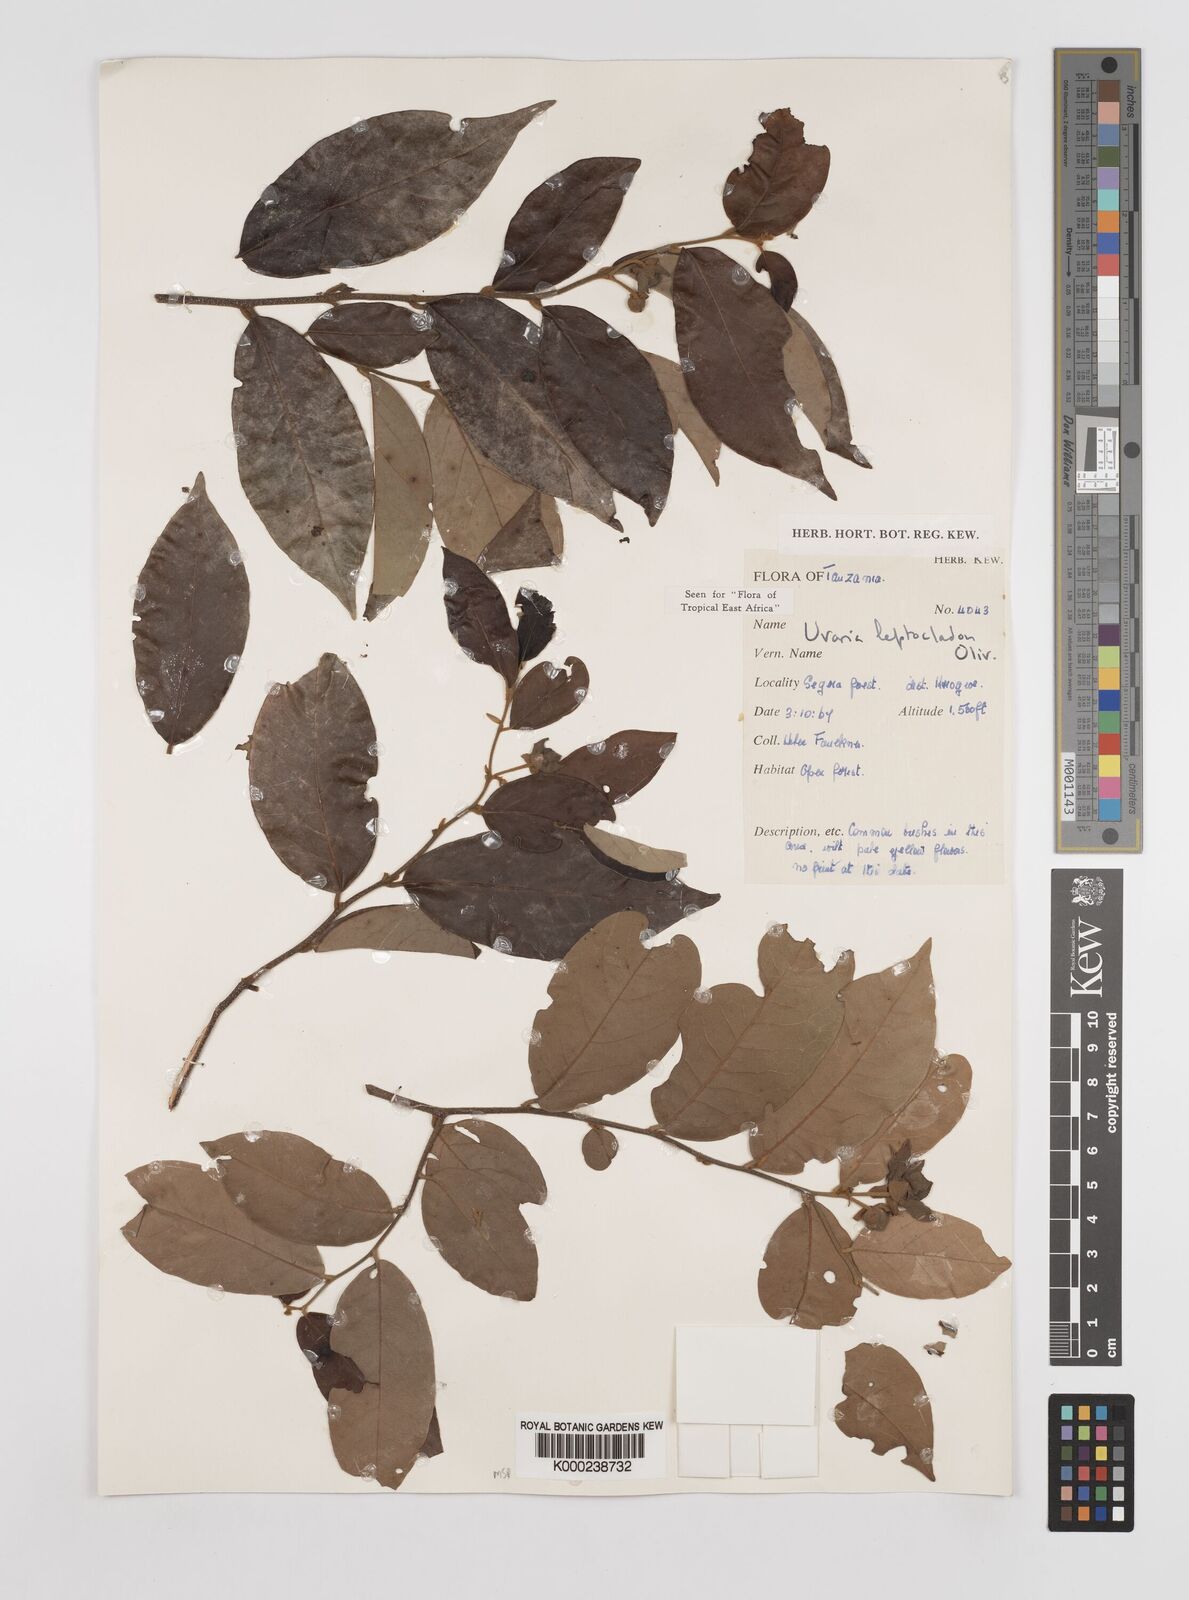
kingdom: Plantae
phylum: Tracheophyta
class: Magnoliopsida
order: Magnoliales
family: Annonaceae
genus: Uvaria
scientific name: Uvaria leptocladon
